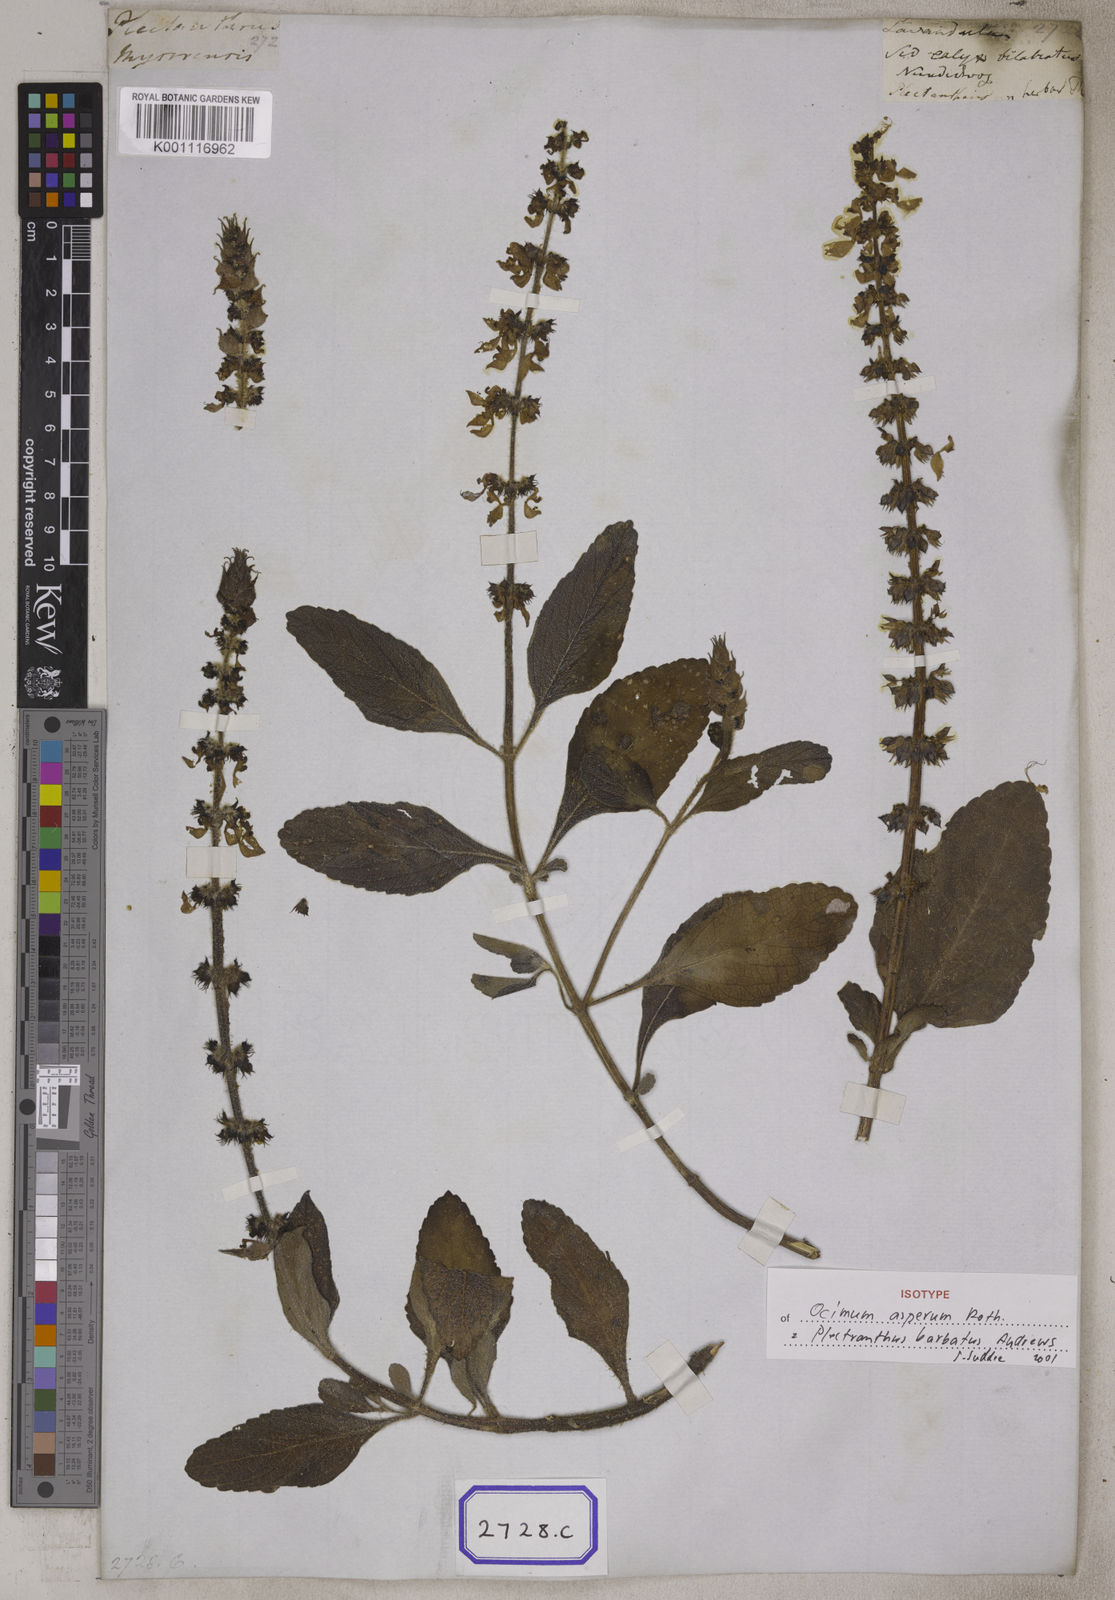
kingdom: Plantae
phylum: Tracheophyta
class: Magnoliopsida
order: Lamiales
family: Lamiaceae
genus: Coleus
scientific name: Coleus
